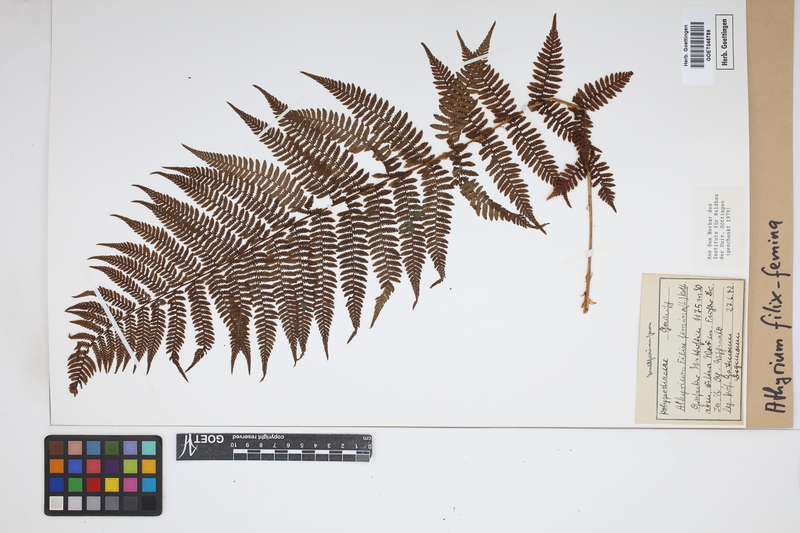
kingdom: Plantae
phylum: Tracheophyta
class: Polypodiopsida
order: Polypodiales
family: Athyriaceae
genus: Athyrium
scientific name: Athyrium filix-femina
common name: Lady fern
